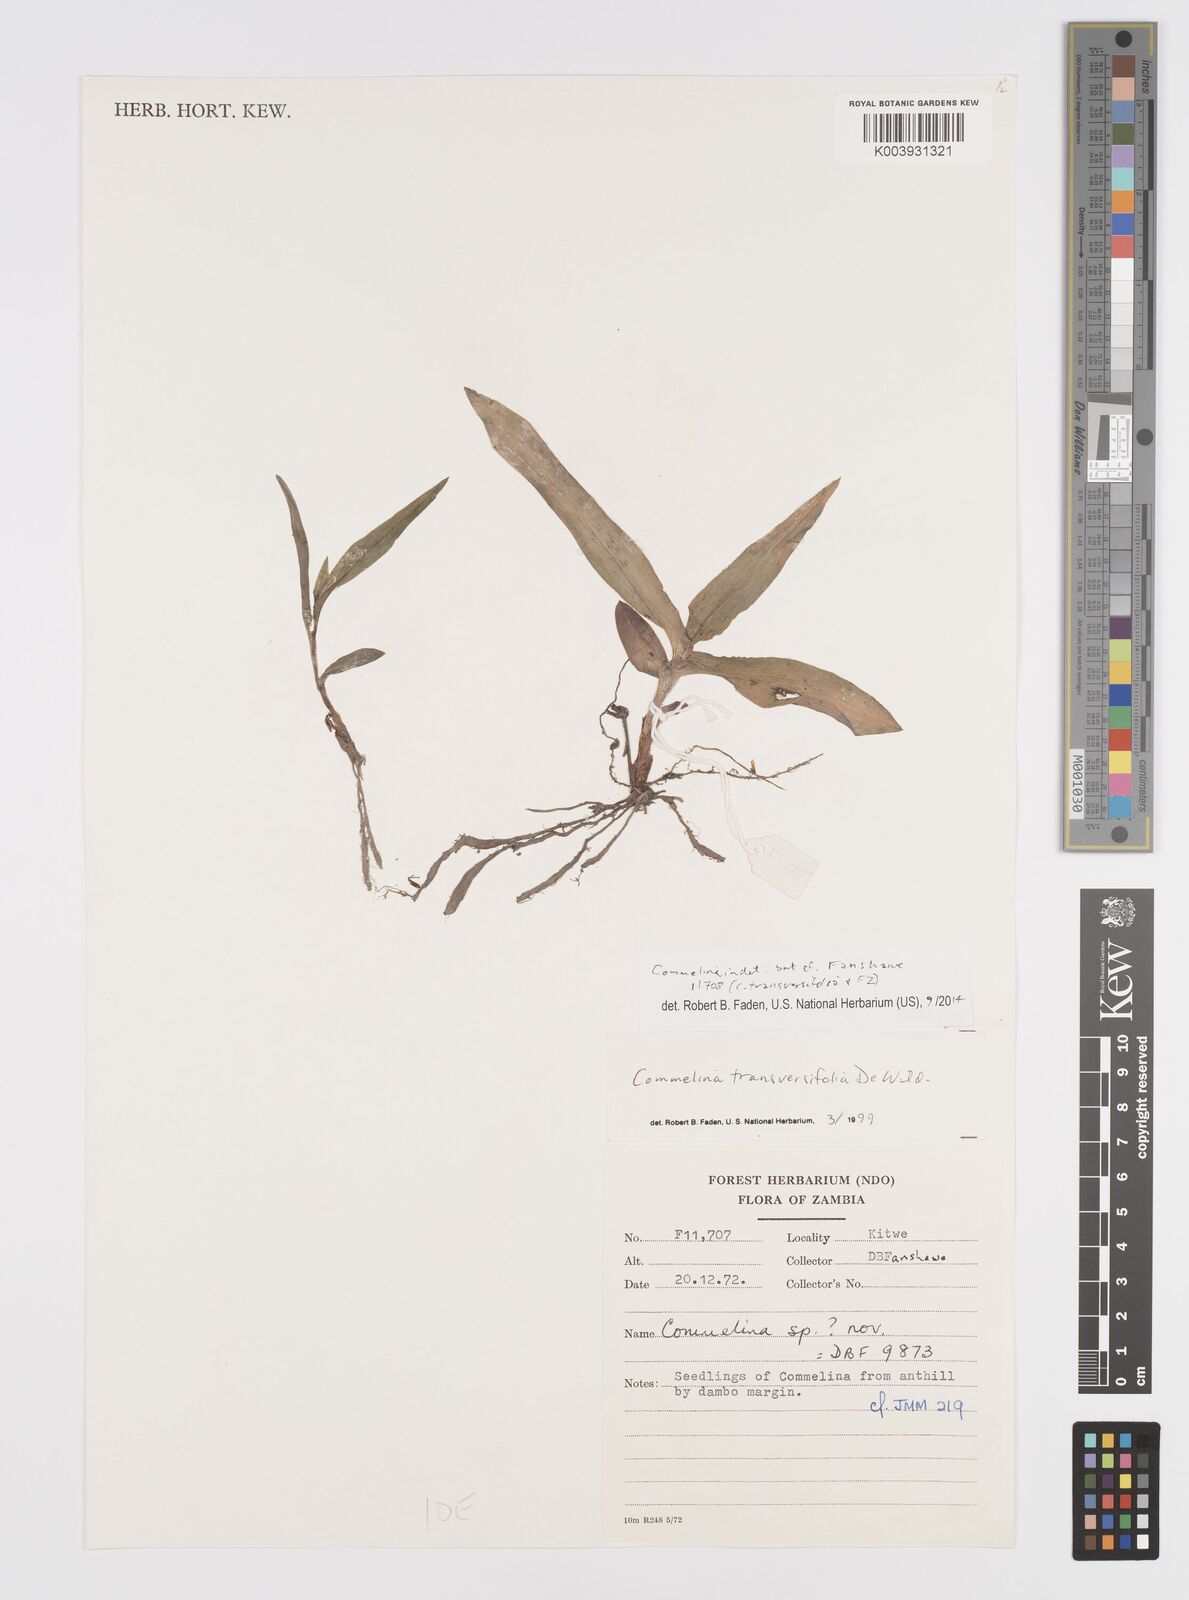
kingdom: Plantae
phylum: Tracheophyta
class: Liliopsida
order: Commelinales
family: Commelinaceae
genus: Commelina
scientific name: Commelina
